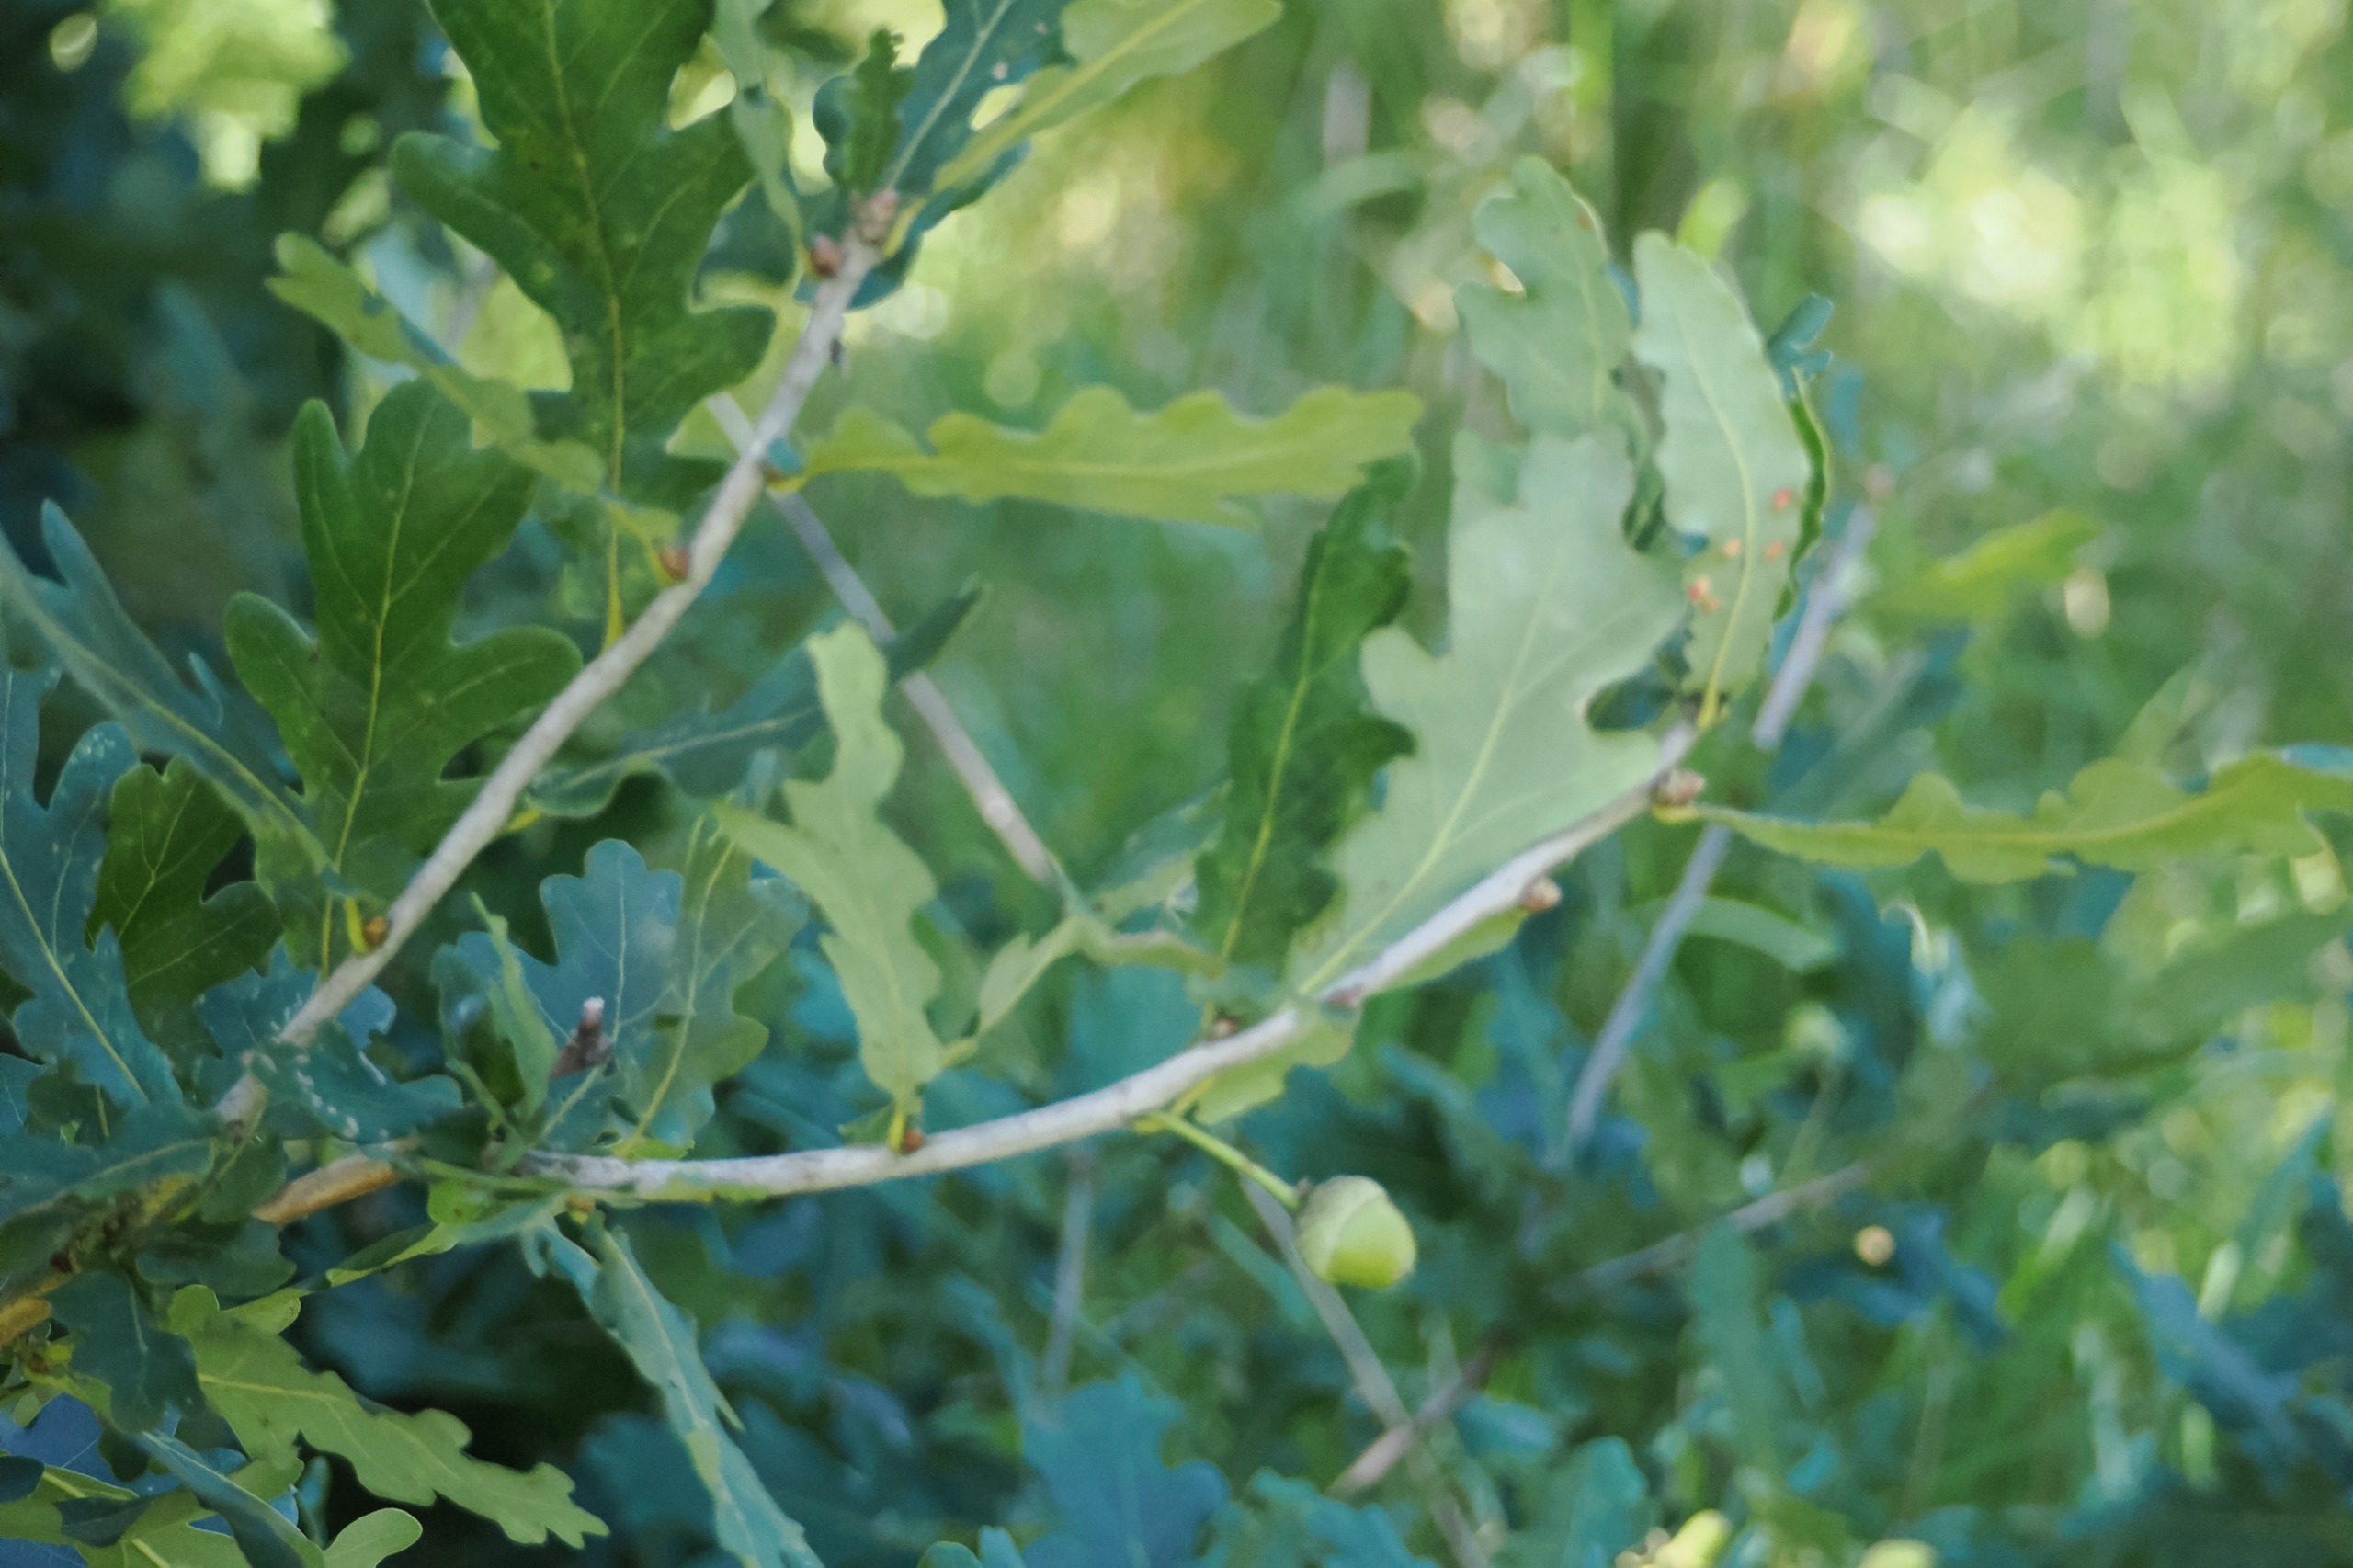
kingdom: Plantae
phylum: Tracheophyta
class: Magnoliopsida
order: Fagales
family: Fagaceae
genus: Quercus
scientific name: Quercus robur
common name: Stilk-eg/almindelig eg
